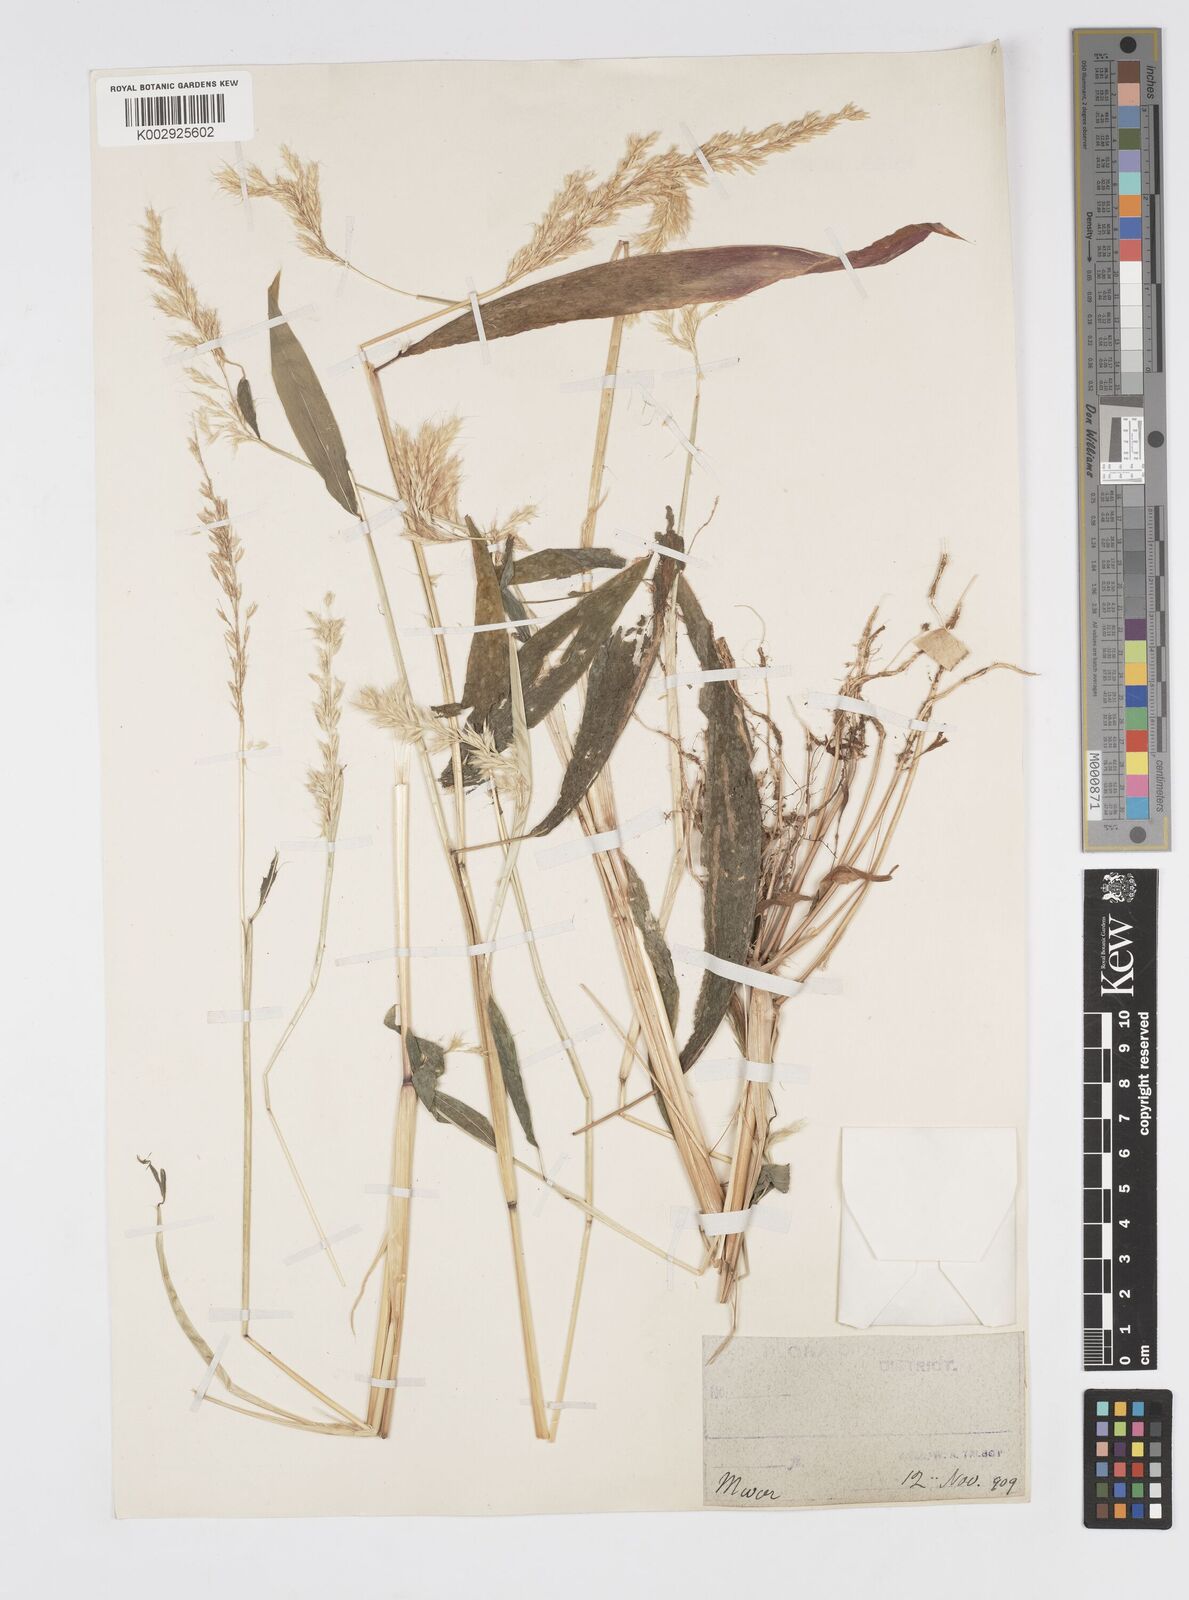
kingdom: Plantae
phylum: Tracheophyta
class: Liliopsida
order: Poales
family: Poaceae
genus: Spodiopogon
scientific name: Spodiopogon rhizophorus
